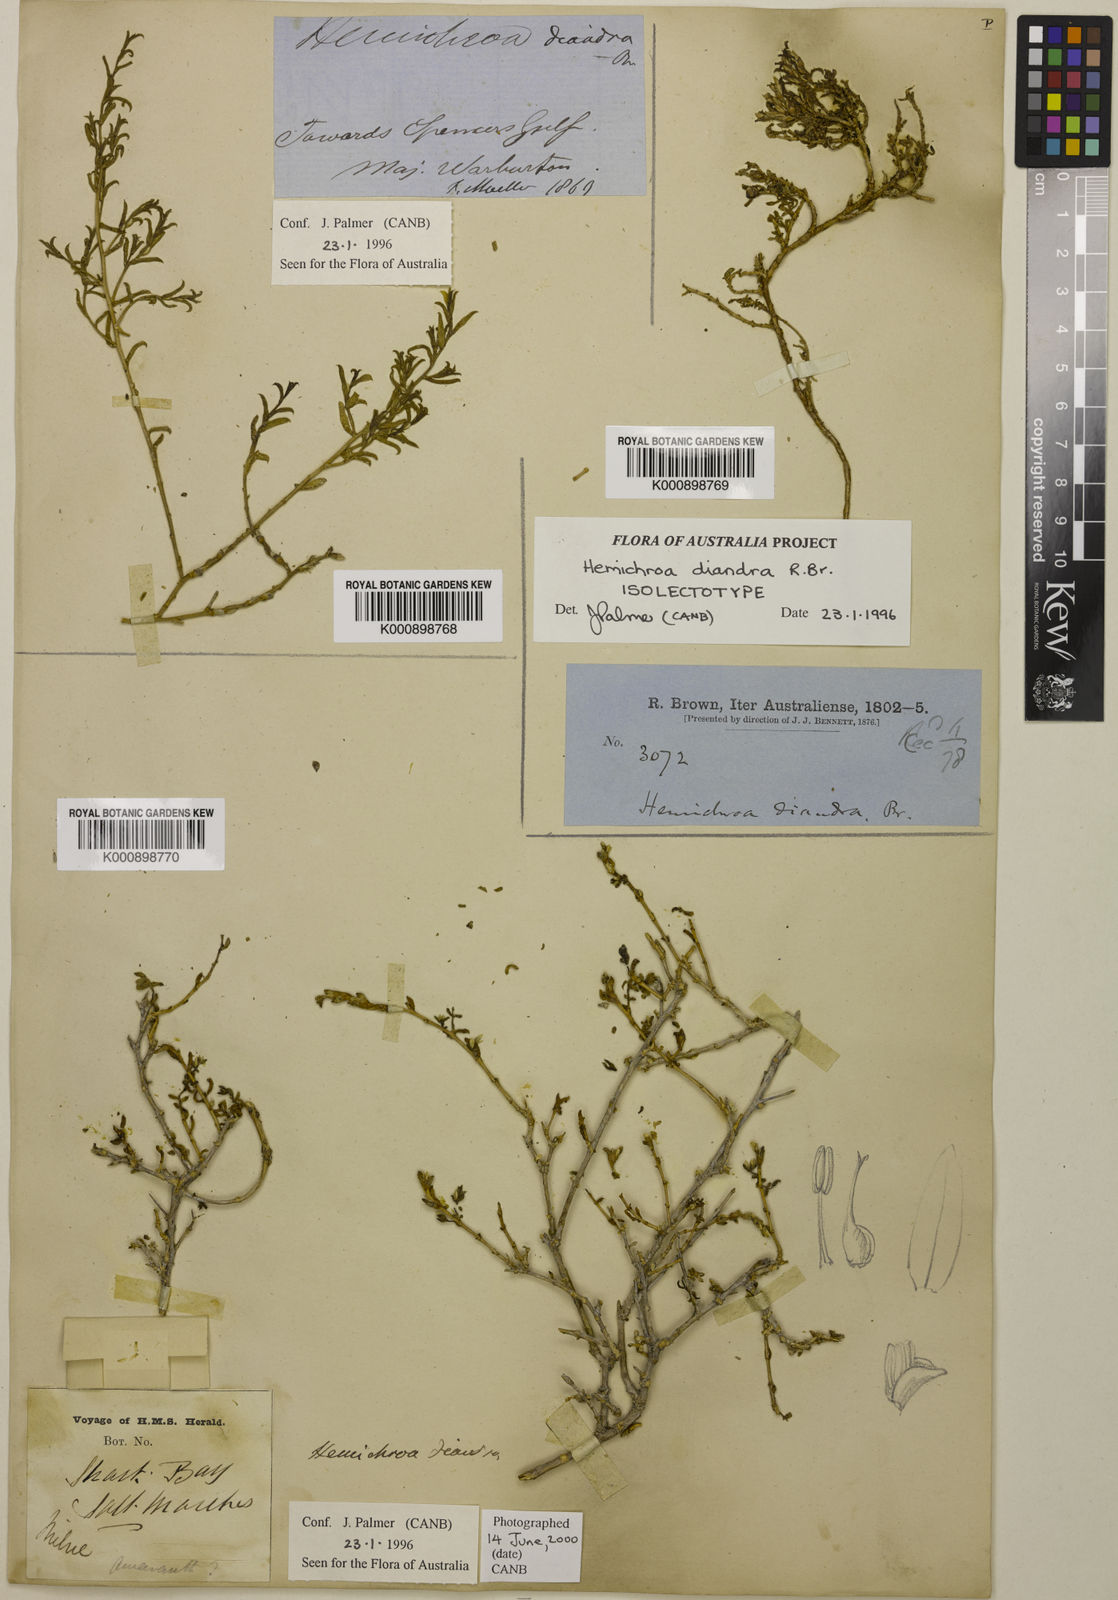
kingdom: Plantae
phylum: Tracheophyta
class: Magnoliopsida
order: Caryophyllales
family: Amaranthaceae
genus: Surreya
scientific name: Surreya diandra
